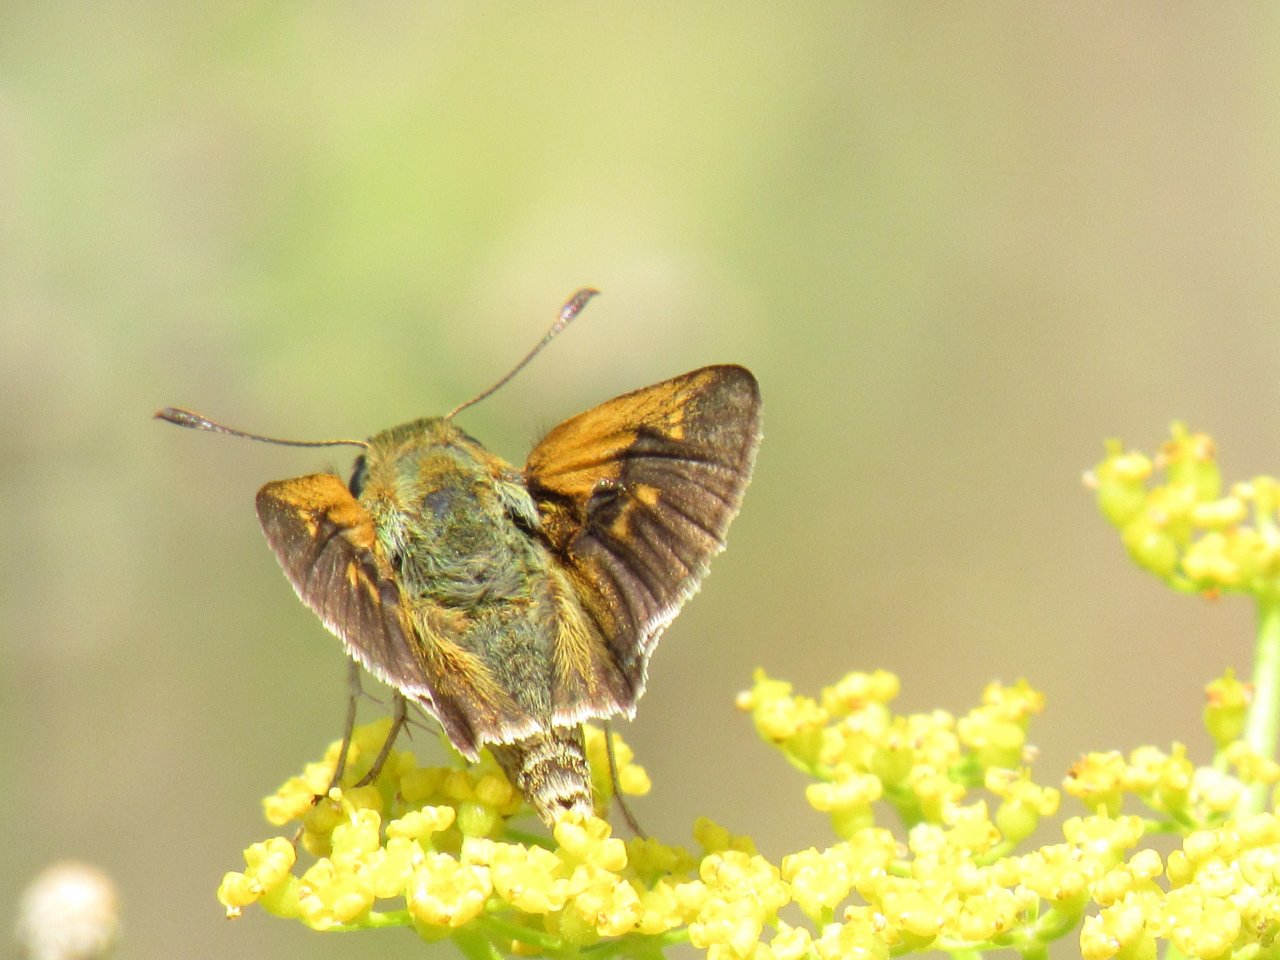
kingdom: Animalia
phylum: Arthropoda
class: Insecta
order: Lepidoptera
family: Hesperiidae
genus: Polites
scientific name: Polites
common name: Crossline Skipper
